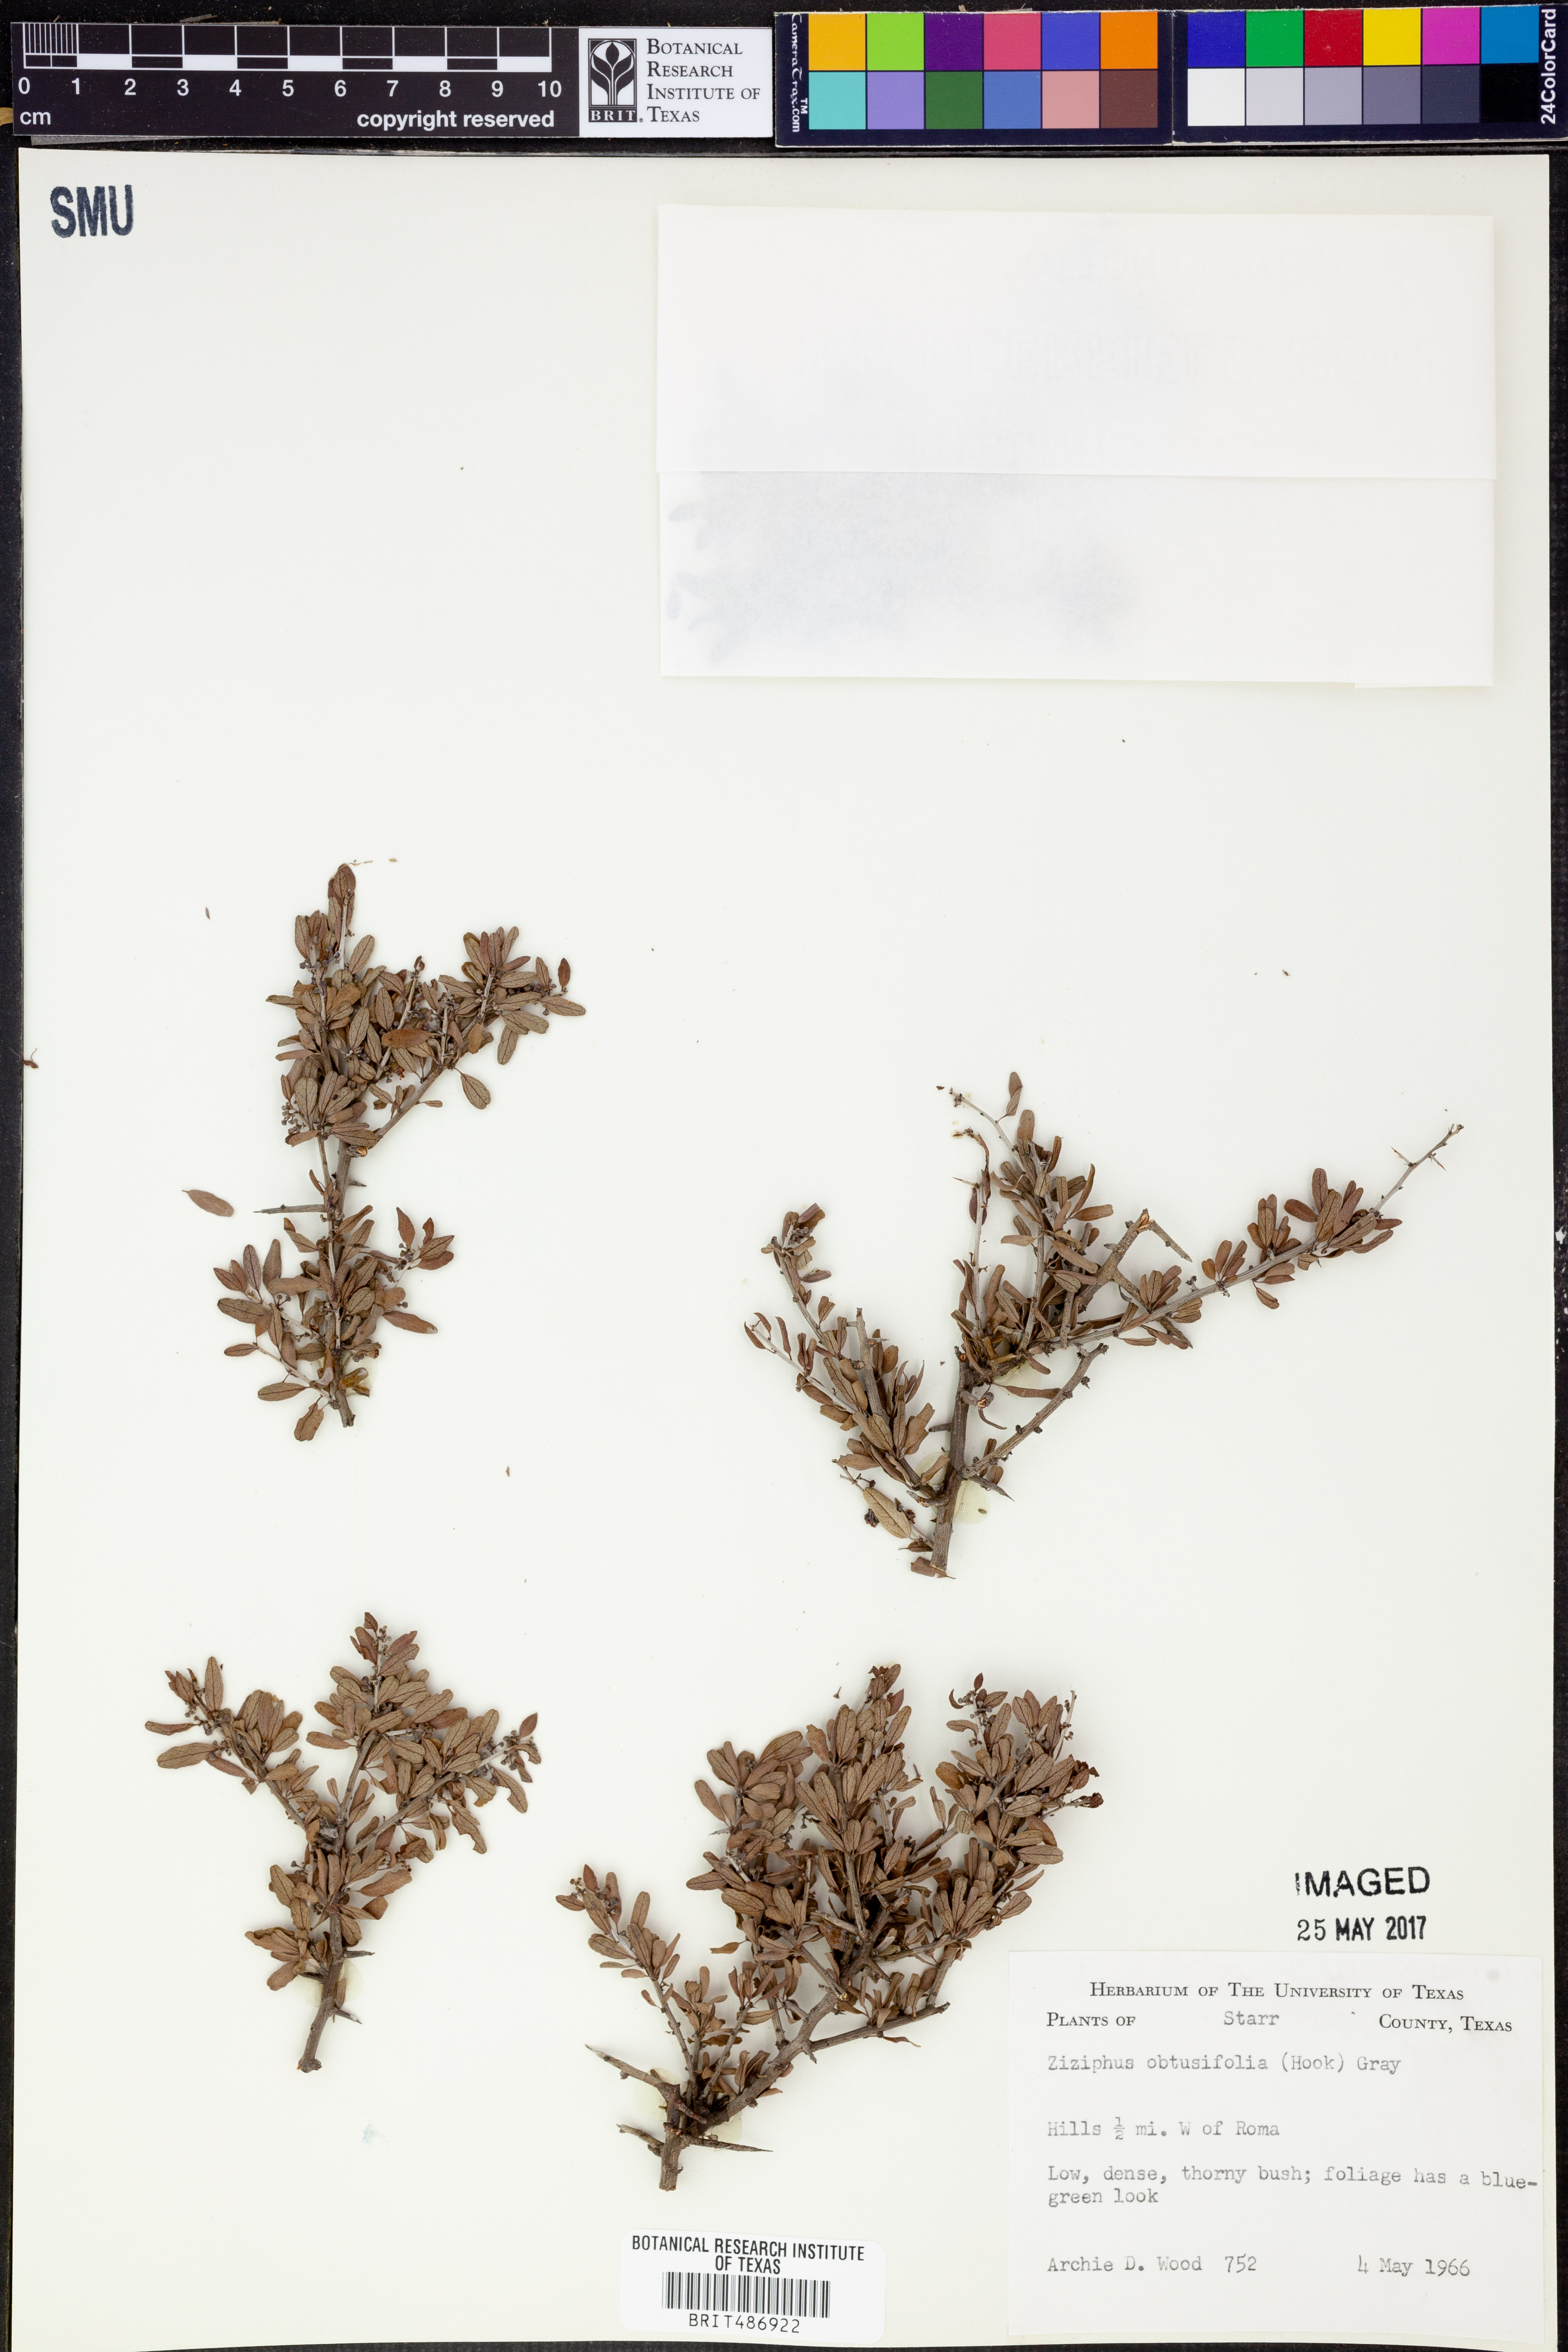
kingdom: Plantae
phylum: Tracheophyta
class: Magnoliopsida
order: Rosales
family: Rhamnaceae
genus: Sarcomphalus
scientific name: Sarcomphalus obtusifolius
